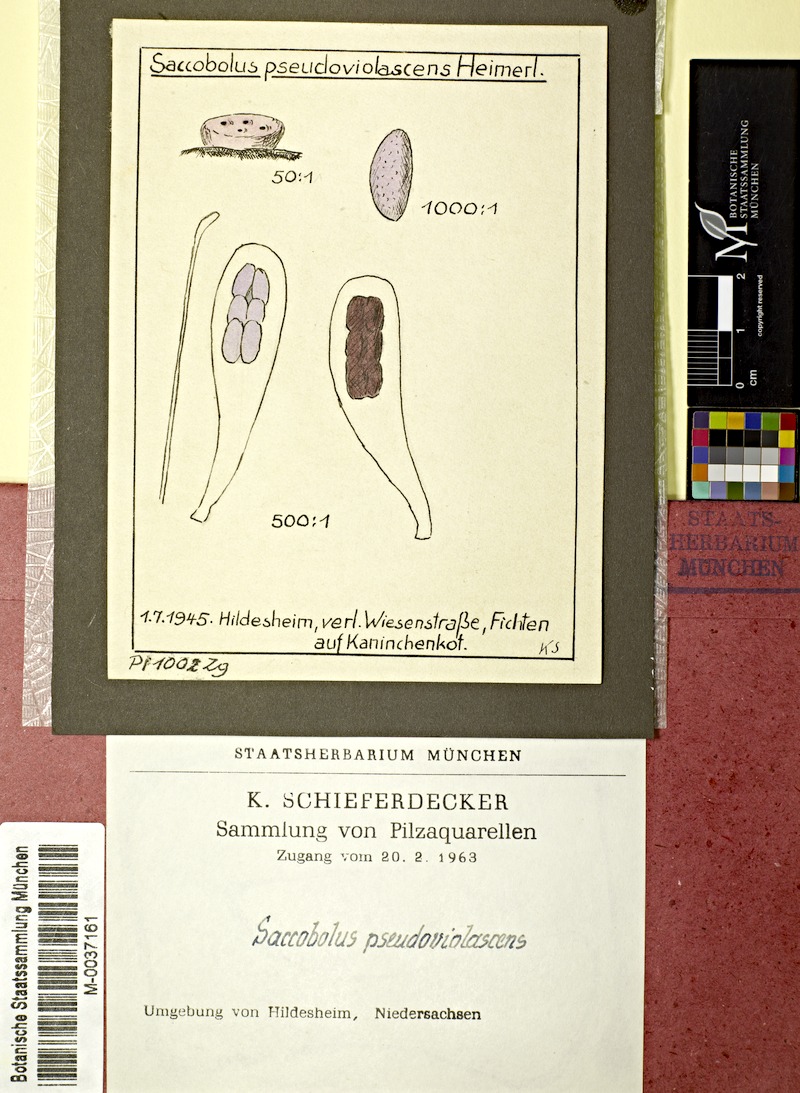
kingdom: Fungi
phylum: Ascomycota
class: Pezizomycetes
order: Pezizales
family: Ascobolaceae
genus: Saccobolus
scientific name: Saccobolus pseudoviolaceus
